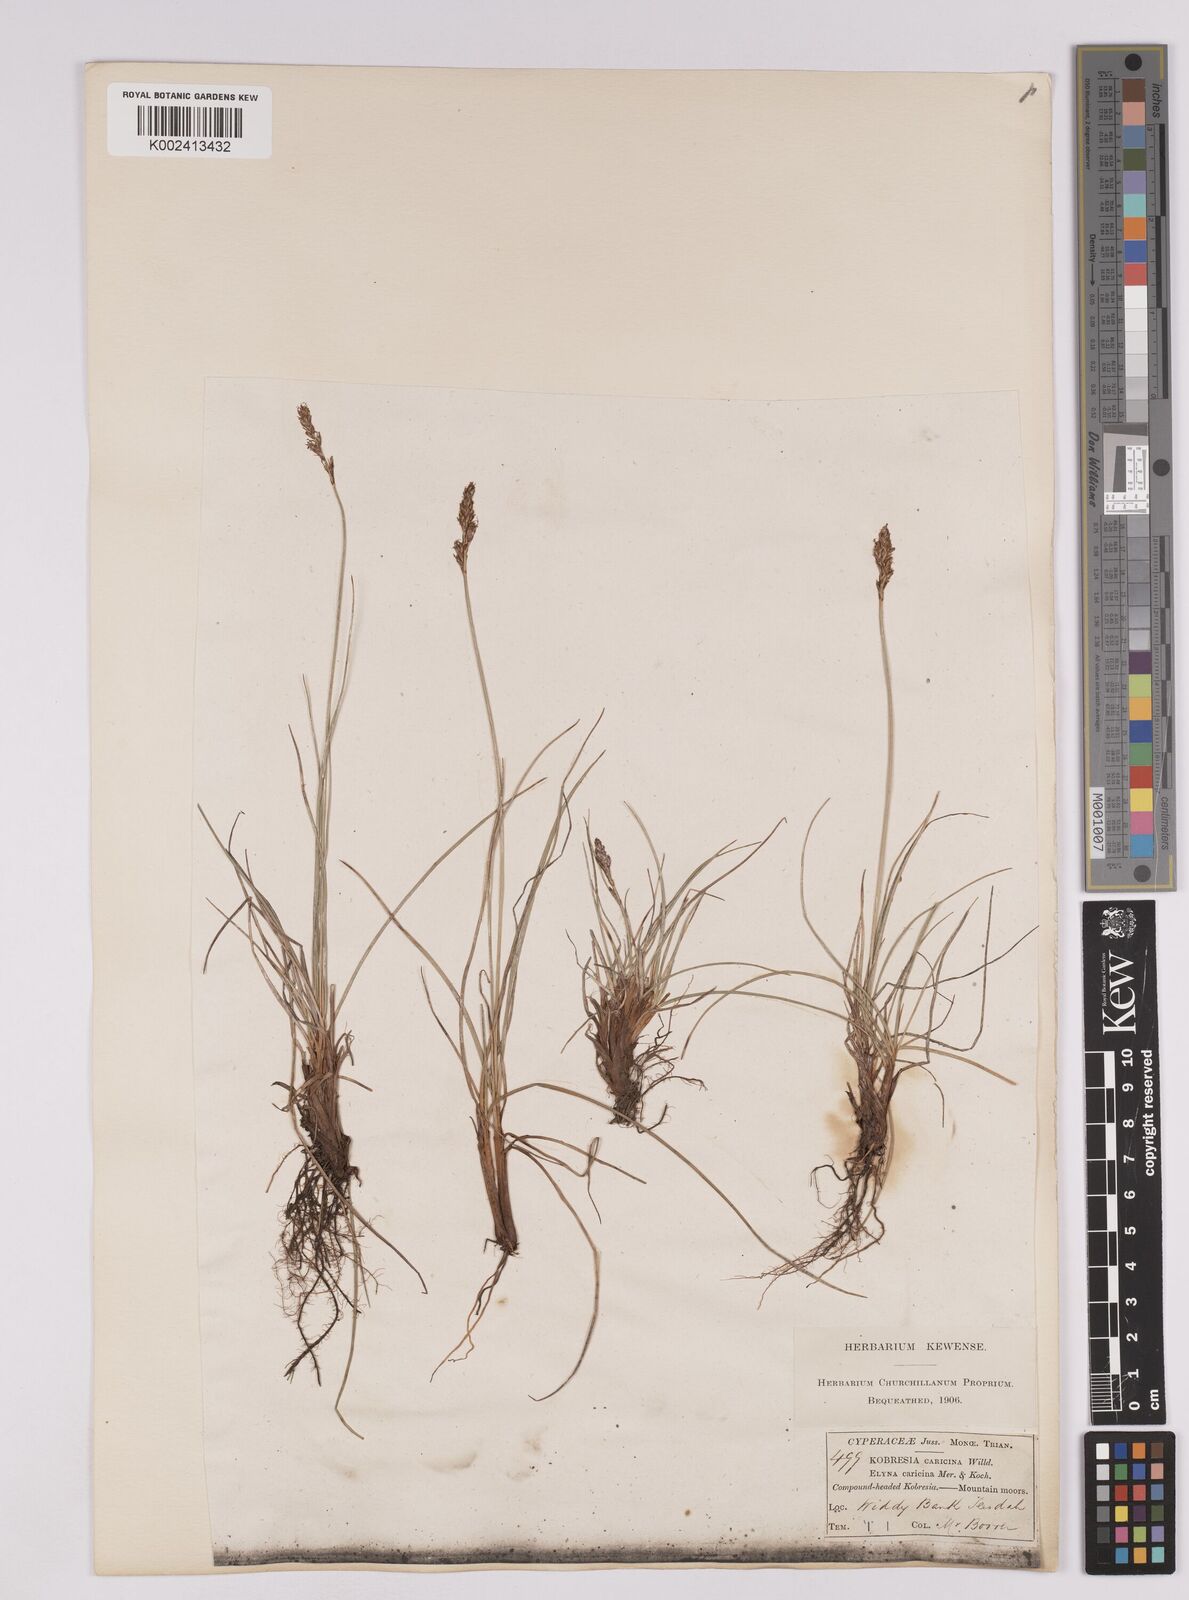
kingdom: Plantae
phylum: Tracheophyta
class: Liliopsida
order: Poales
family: Cyperaceae
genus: Carex
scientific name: Carex simpliciuscula
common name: Simple bog sedge
